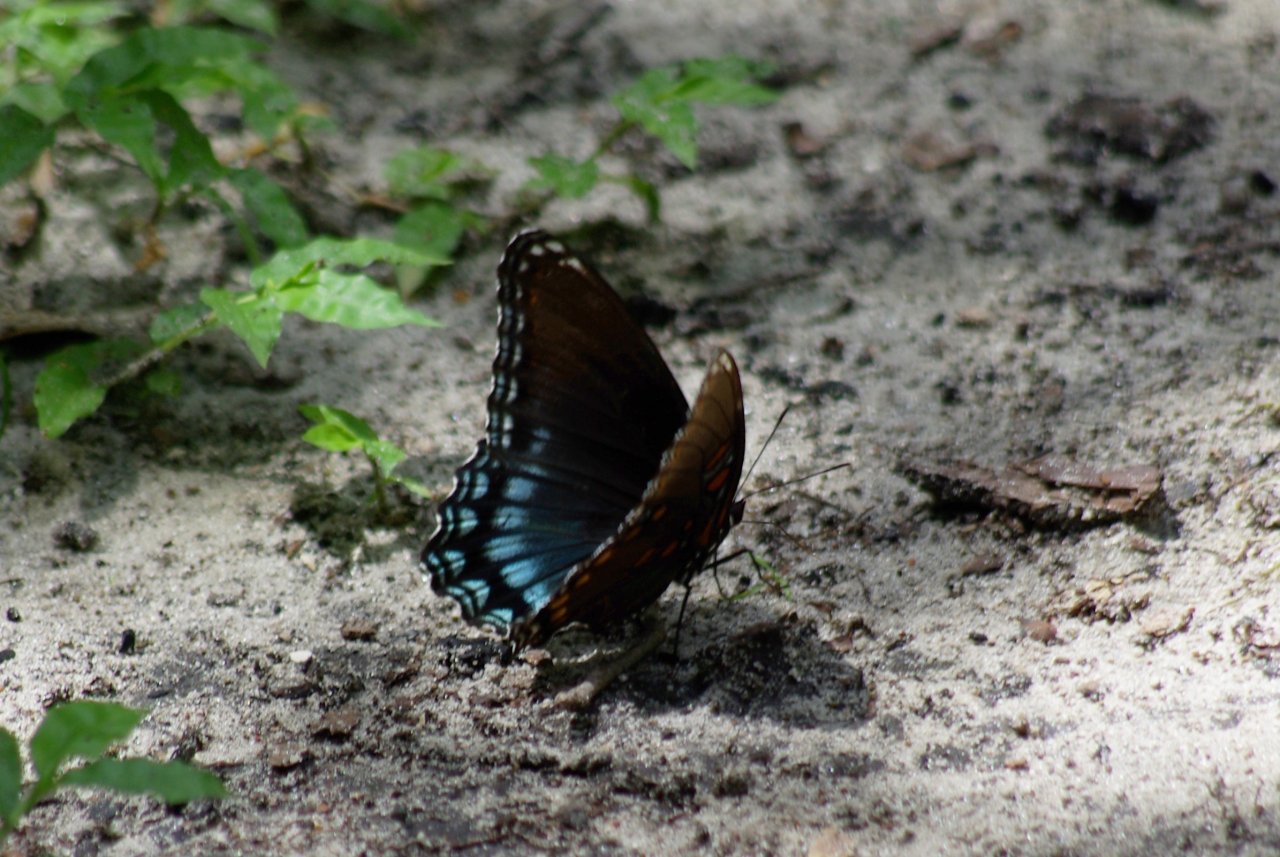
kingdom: Animalia
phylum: Arthropoda
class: Insecta
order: Lepidoptera
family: Nymphalidae
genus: Limenitis
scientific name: Limenitis astyanax
